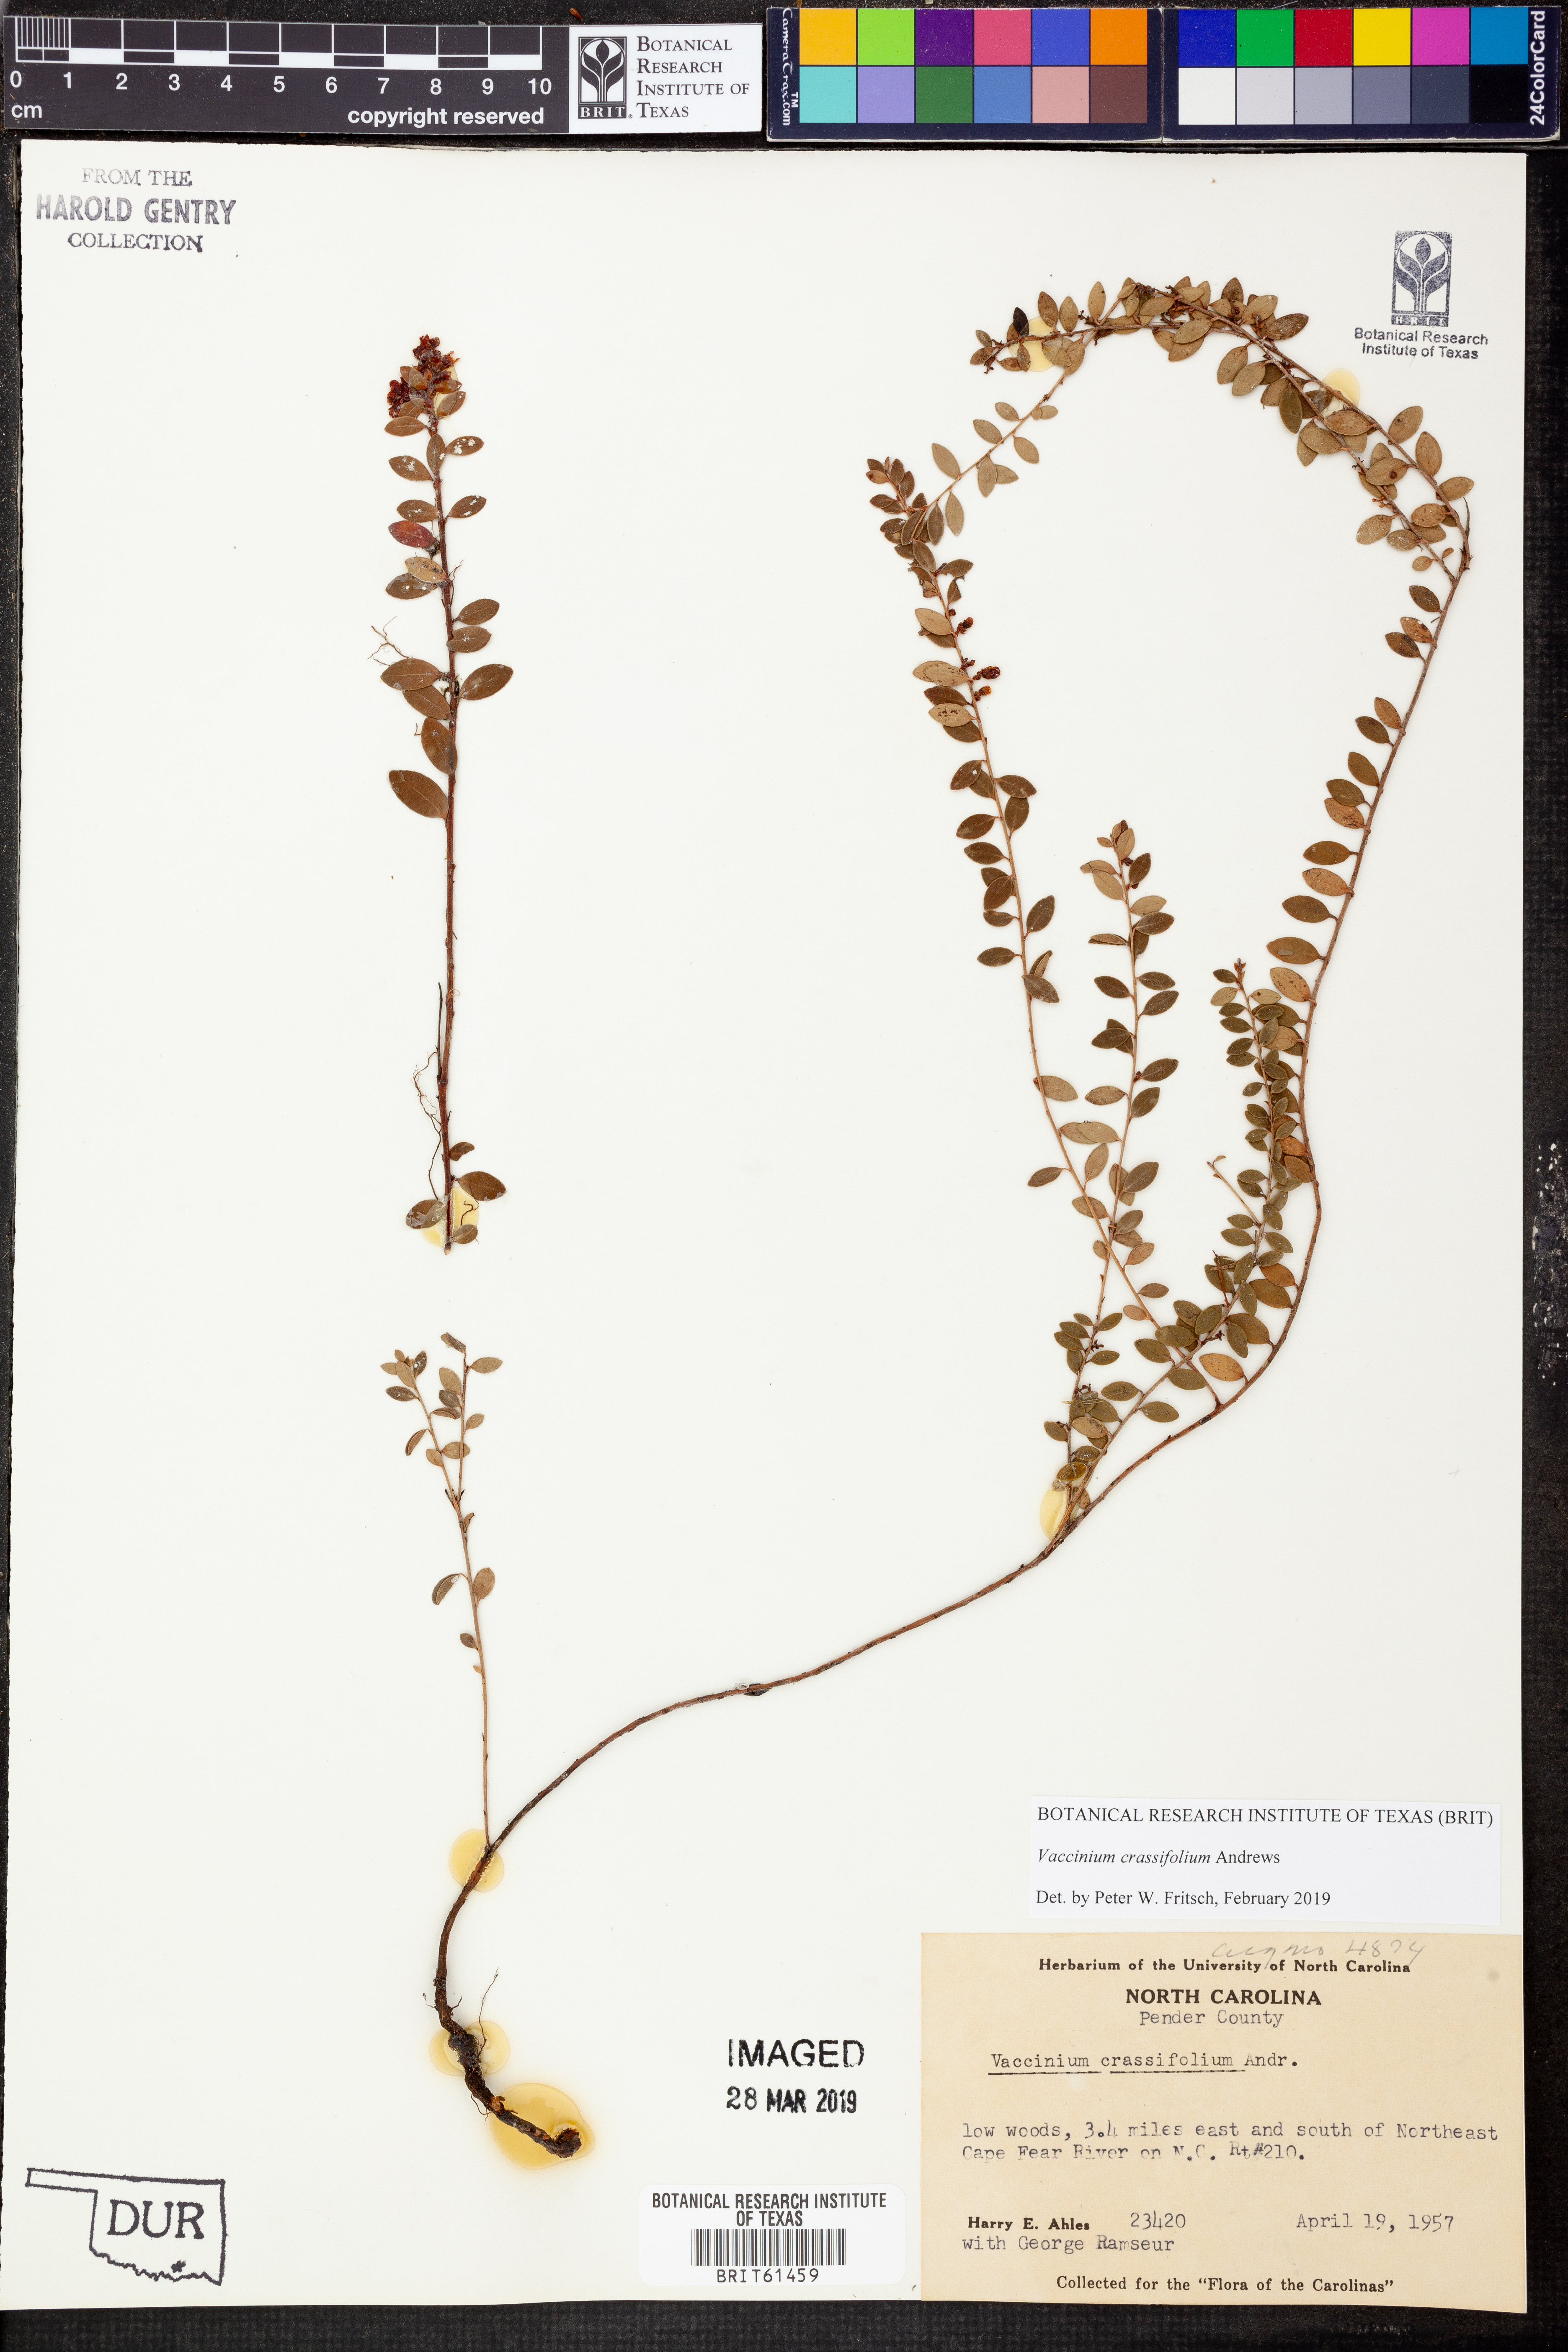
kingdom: Plantae
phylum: Tracheophyta
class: Magnoliopsida
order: Ericales
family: Ericaceae
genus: Vaccinium
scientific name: Vaccinium crassifolium
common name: Creeping blueberry
